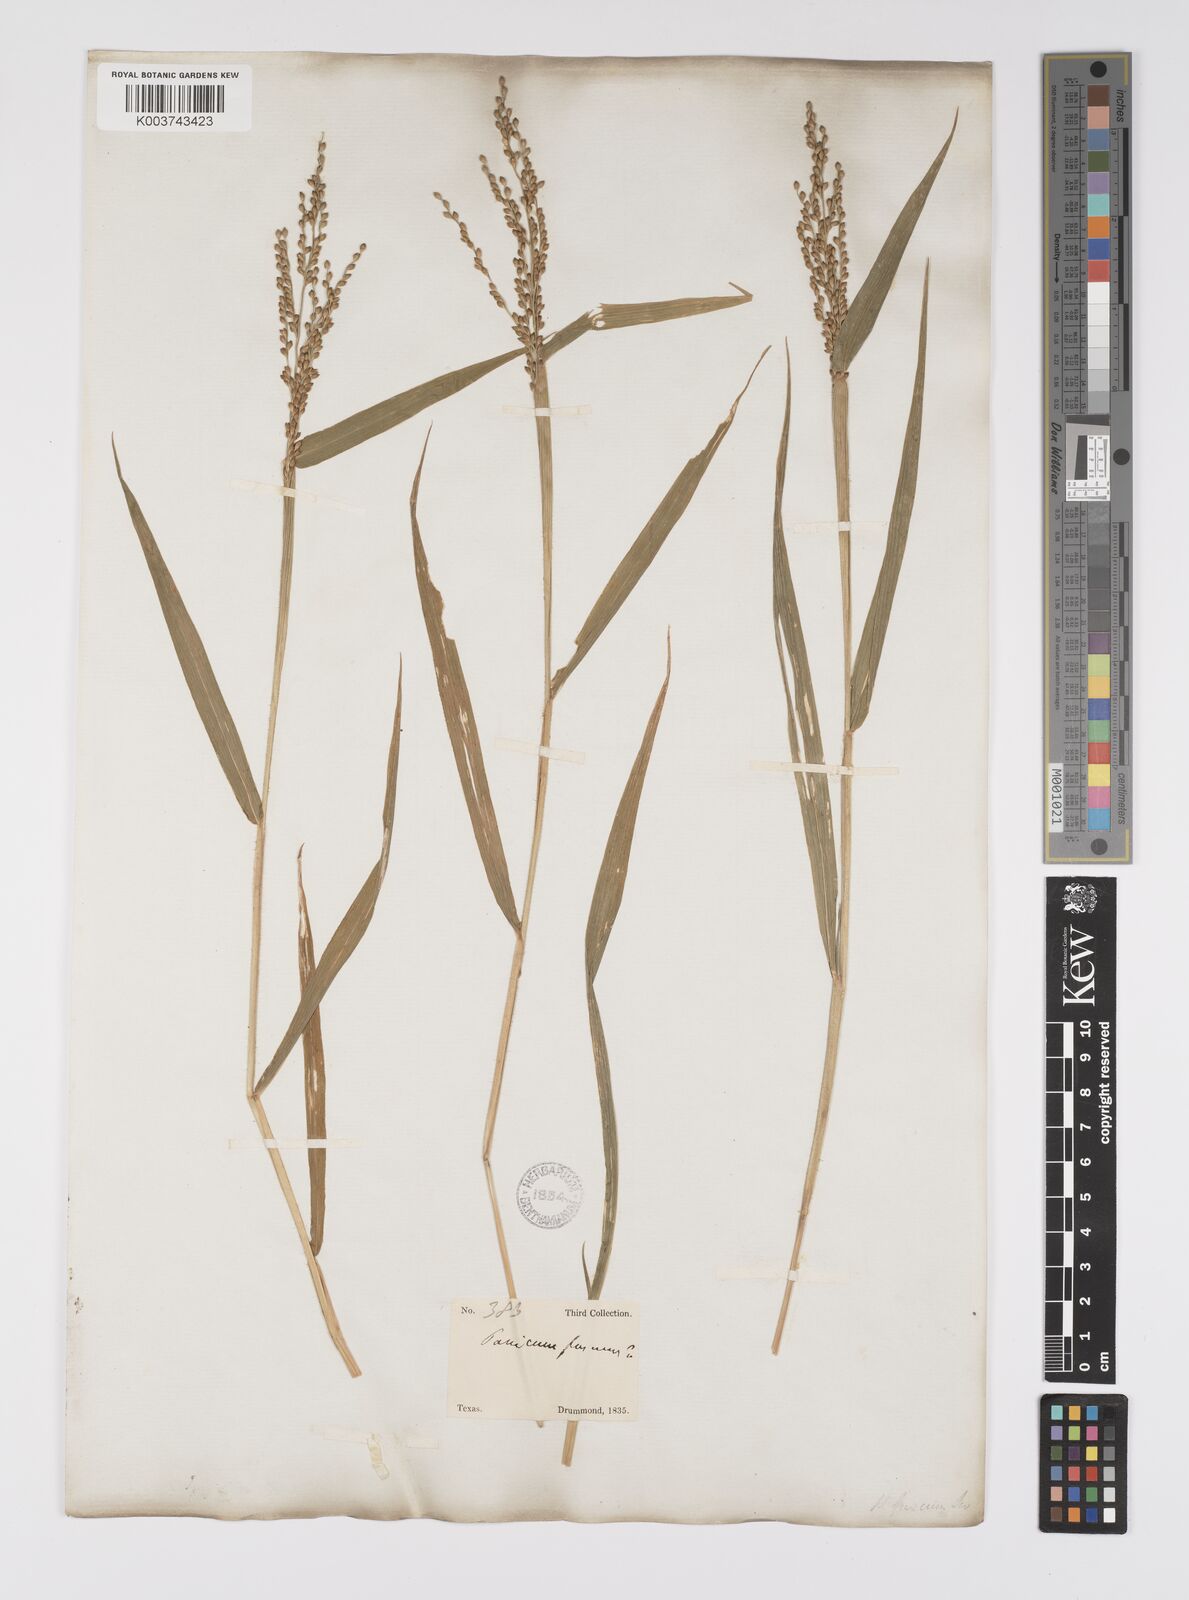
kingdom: Plantae
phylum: Tracheophyta
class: Liliopsida
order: Poales
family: Poaceae
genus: Urochloa
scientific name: Urochloa fusca
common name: Browntop signal grass
